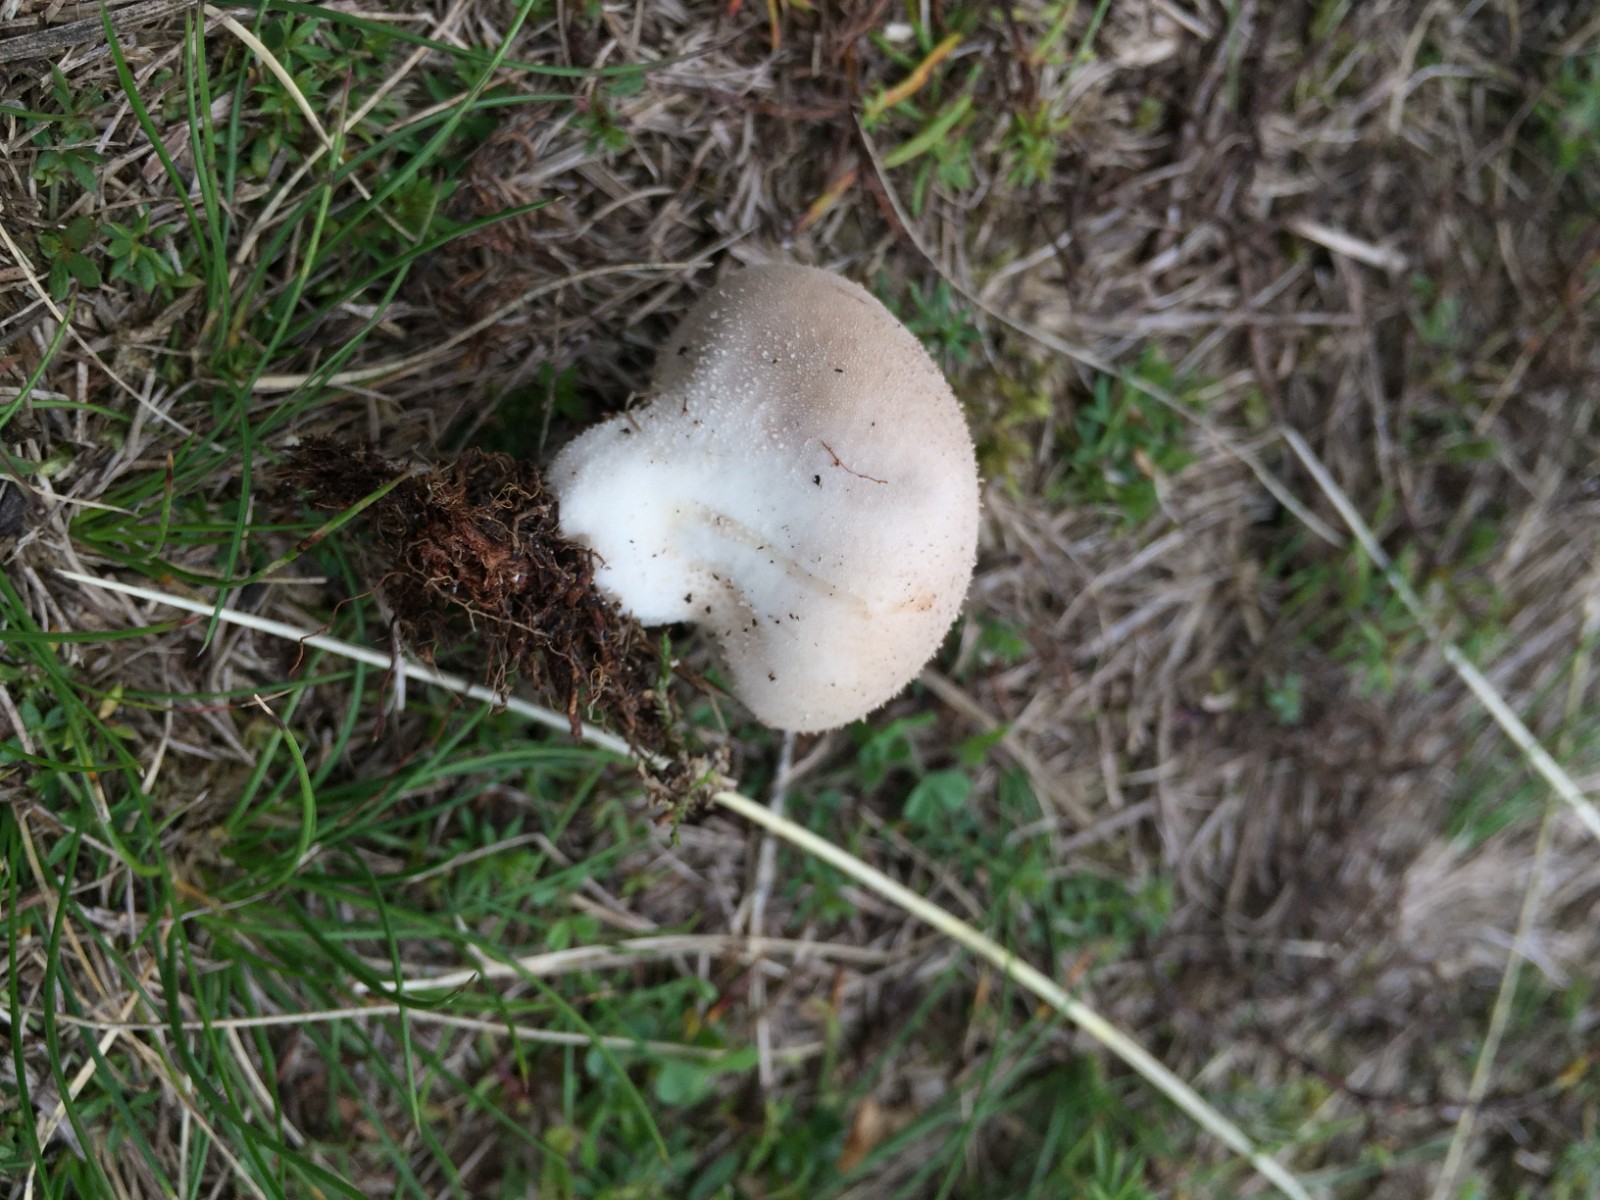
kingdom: Fungi
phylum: Basidiomycota
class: Agaricomycetes
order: Agaricales
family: Lycoperdaceae
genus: Lycoperdon
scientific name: Lycoperdon lividum
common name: mark-støvbold
